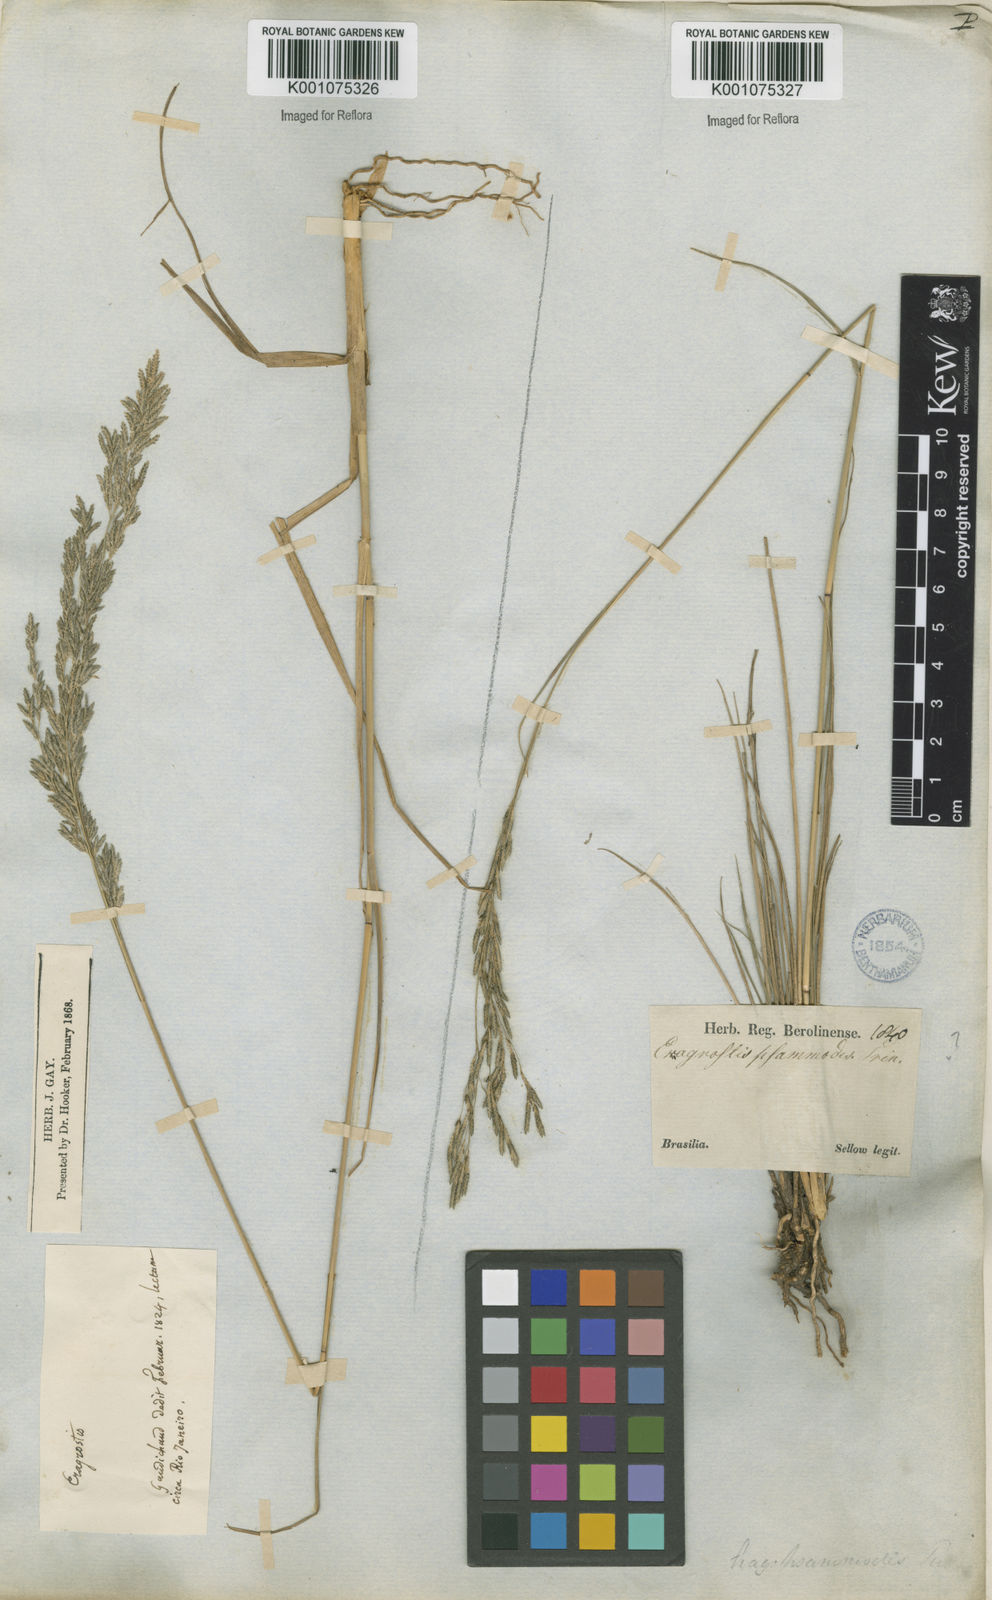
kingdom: Plantae
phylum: Tracheophyta
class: Liliopsida
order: Poales
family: Poaceae
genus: Eragrostis
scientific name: Eragrostis bahiensis
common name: Bahia lovegrass
